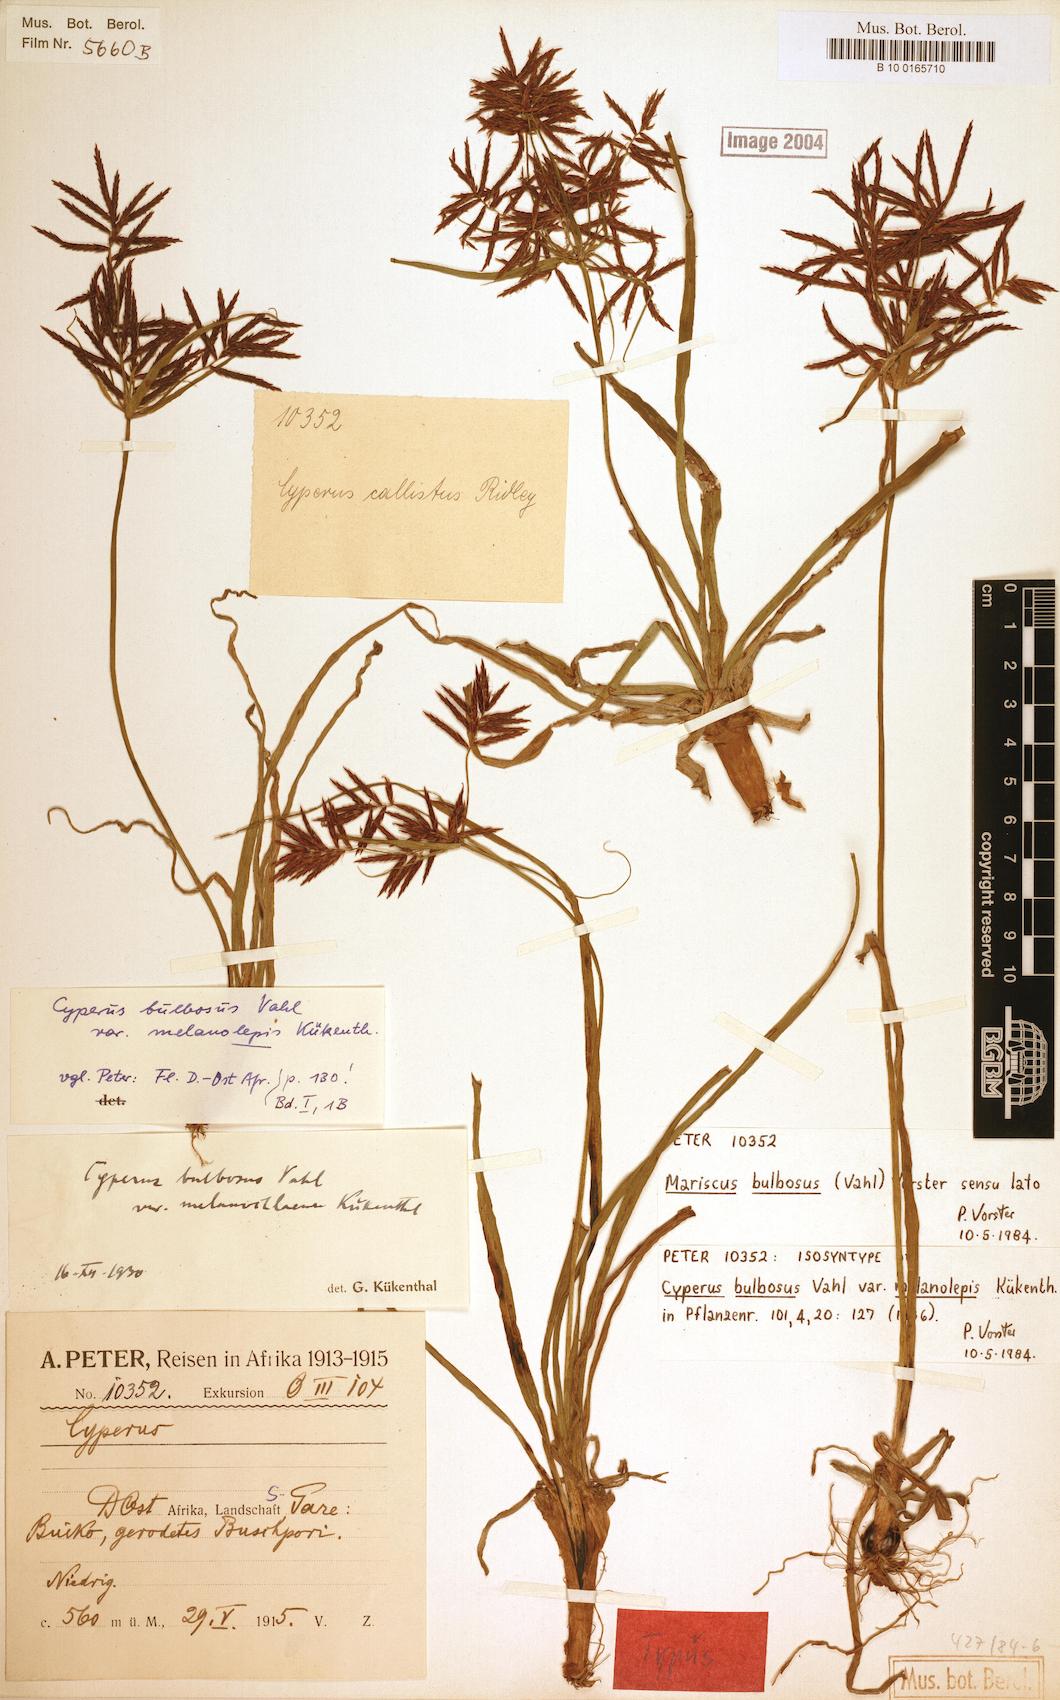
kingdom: Plantae
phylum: Tracheophyta
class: Liliopsida
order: Poales
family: Cyperaceae
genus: Cyperus
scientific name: Cyperus bulbosus
